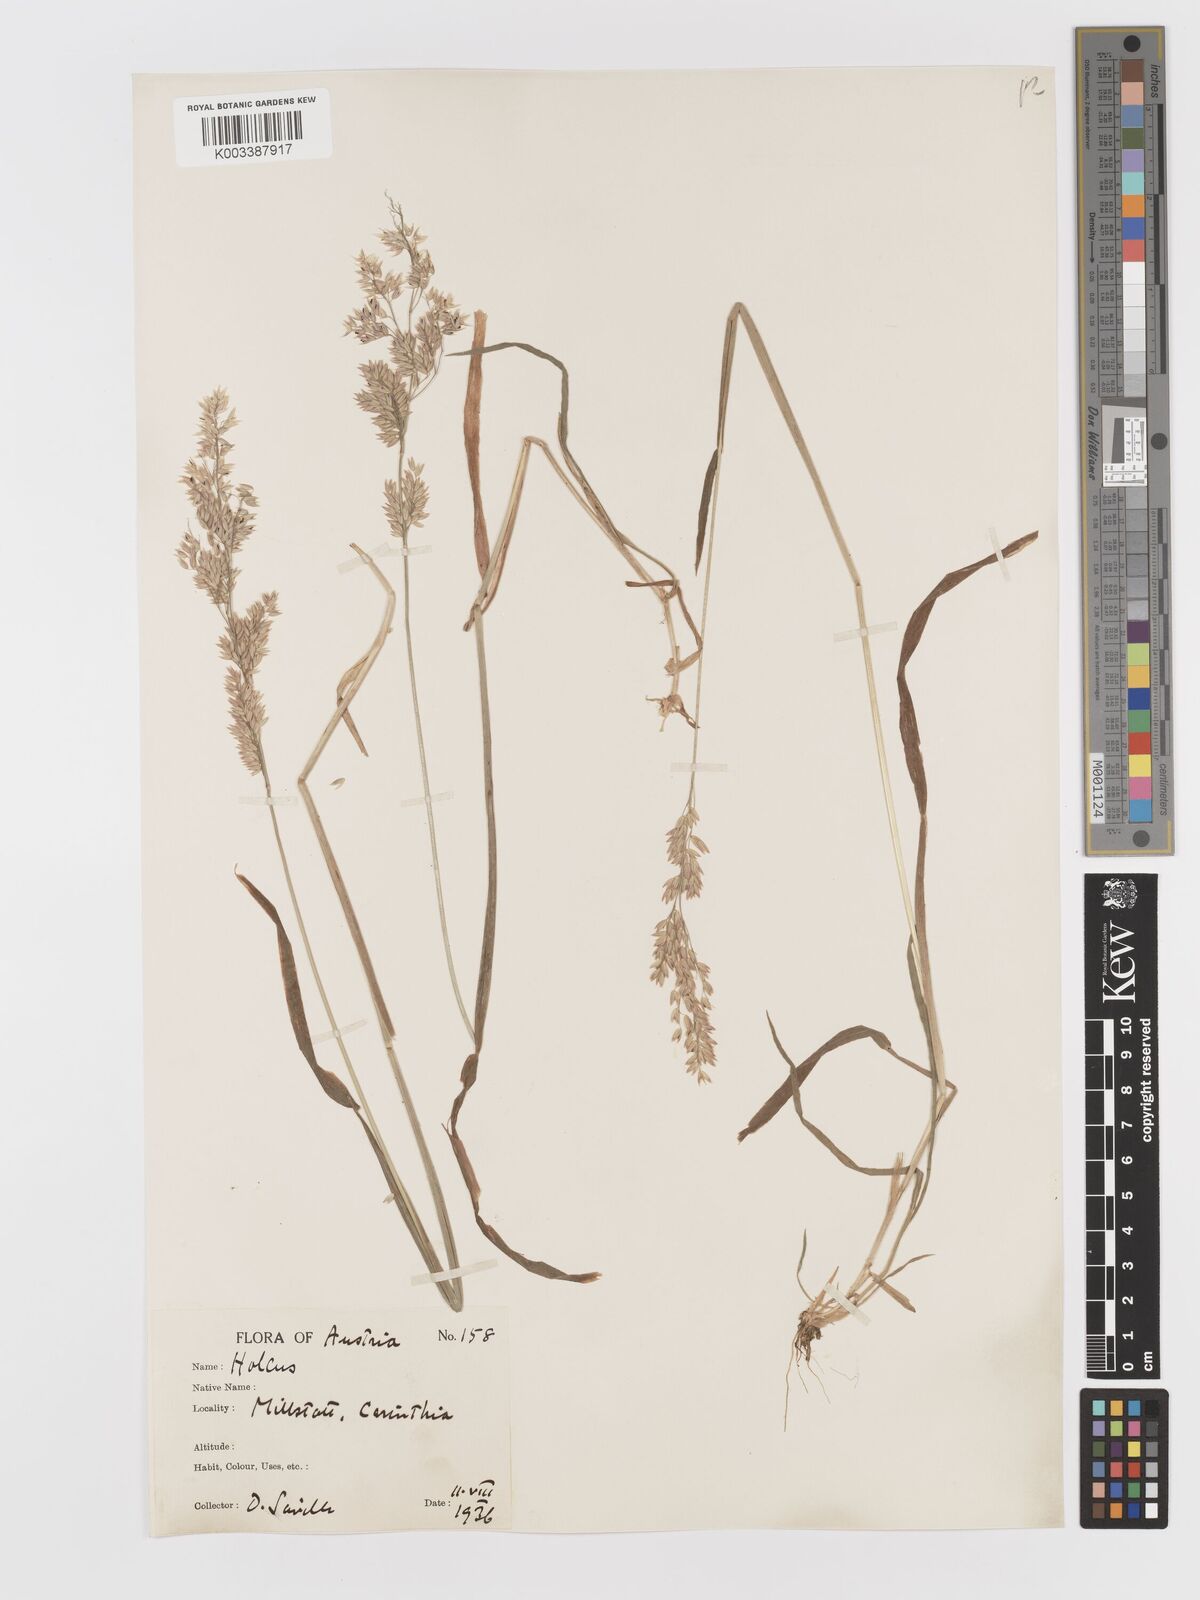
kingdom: Plantae
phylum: Tracheophyta
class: Liliopsida
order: Poales
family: Poaceae
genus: Holcus
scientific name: Holcus lanatus
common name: Yorkshire-fog
